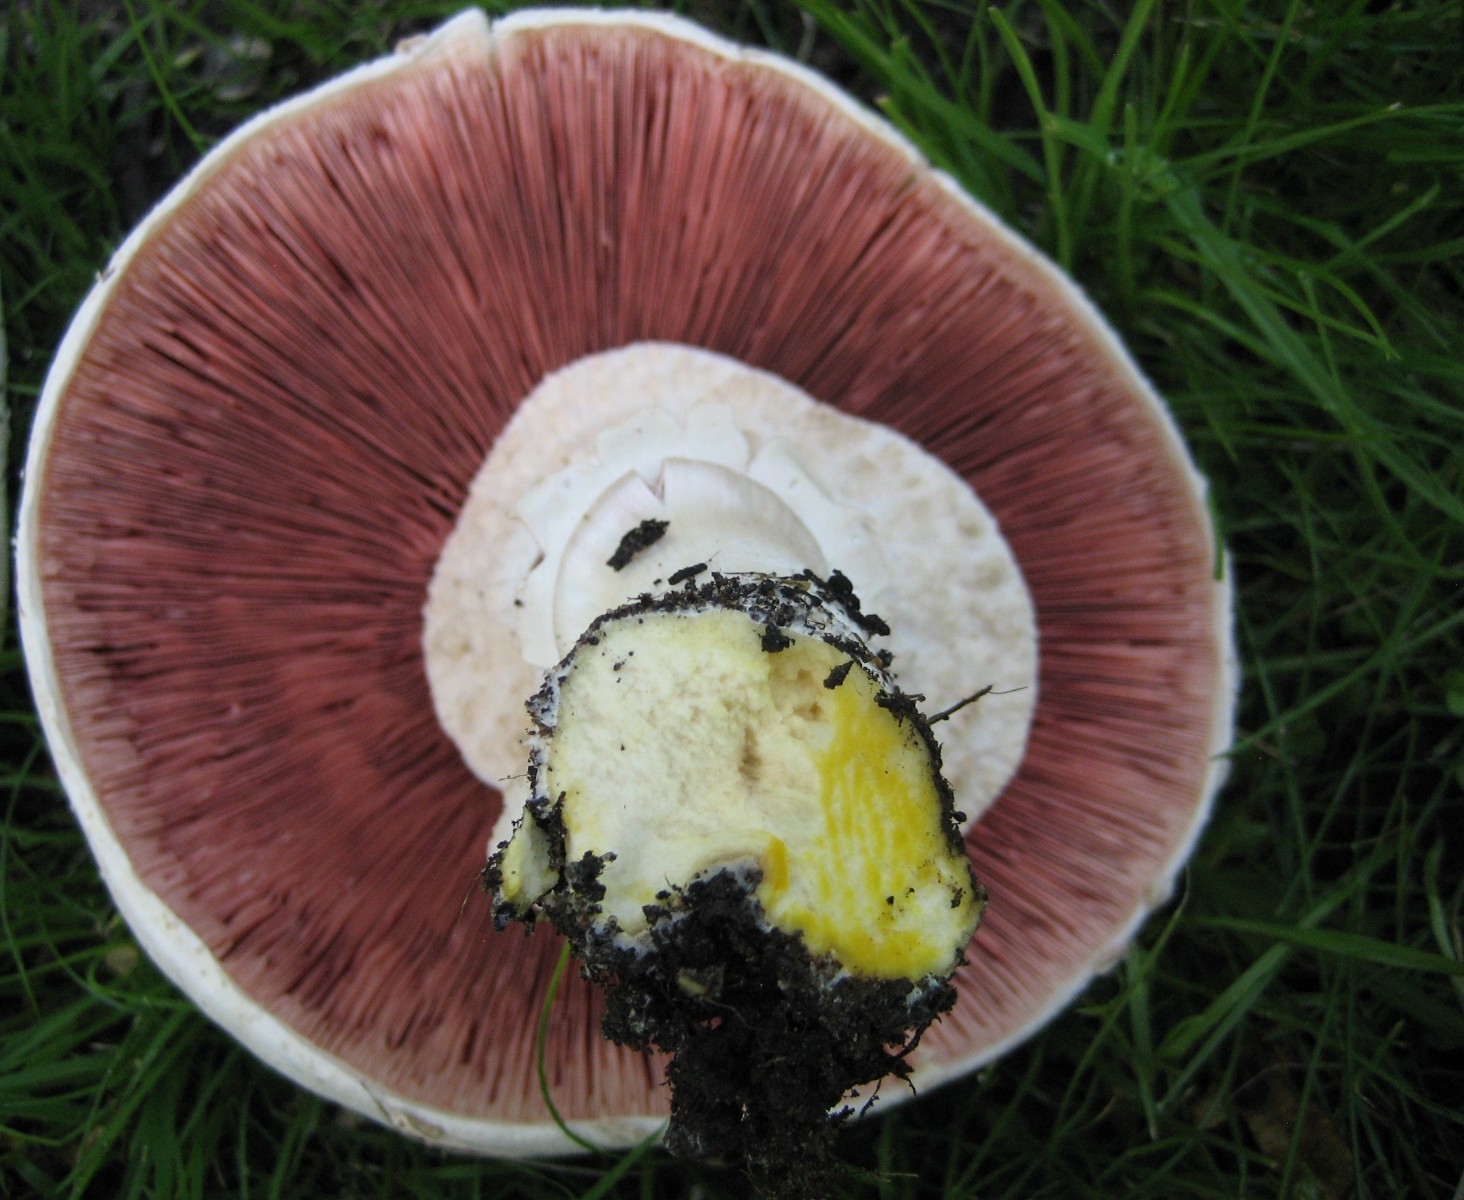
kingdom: Fungi
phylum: Basidiomycota
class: Agaricomycetes
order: Agaricales
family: Agaricaceae
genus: Agaricus
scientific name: Agaricus xanthodermus
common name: karbol-champignon
